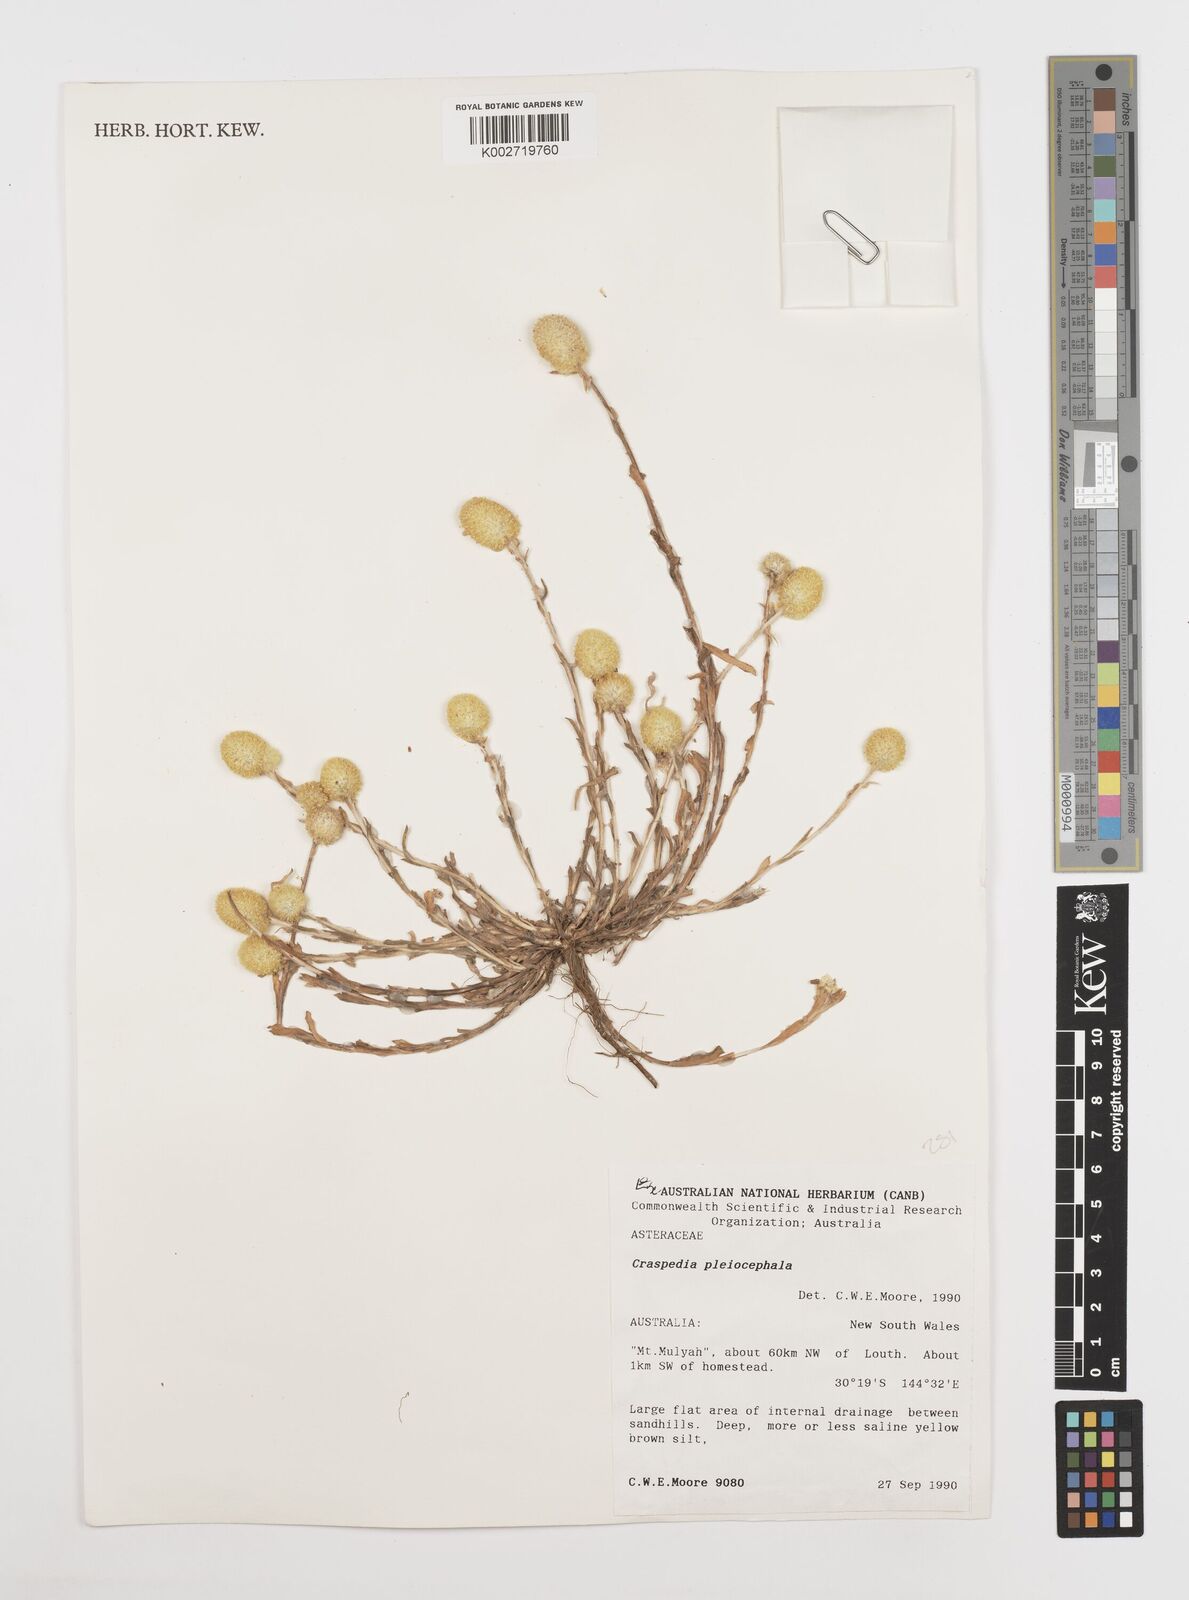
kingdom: Plantae
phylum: Tracheophyta
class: Magnoliopsida
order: Asterales
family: Asteraceae
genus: Pycnosorus
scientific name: Pycnosorus pleiocephalus
